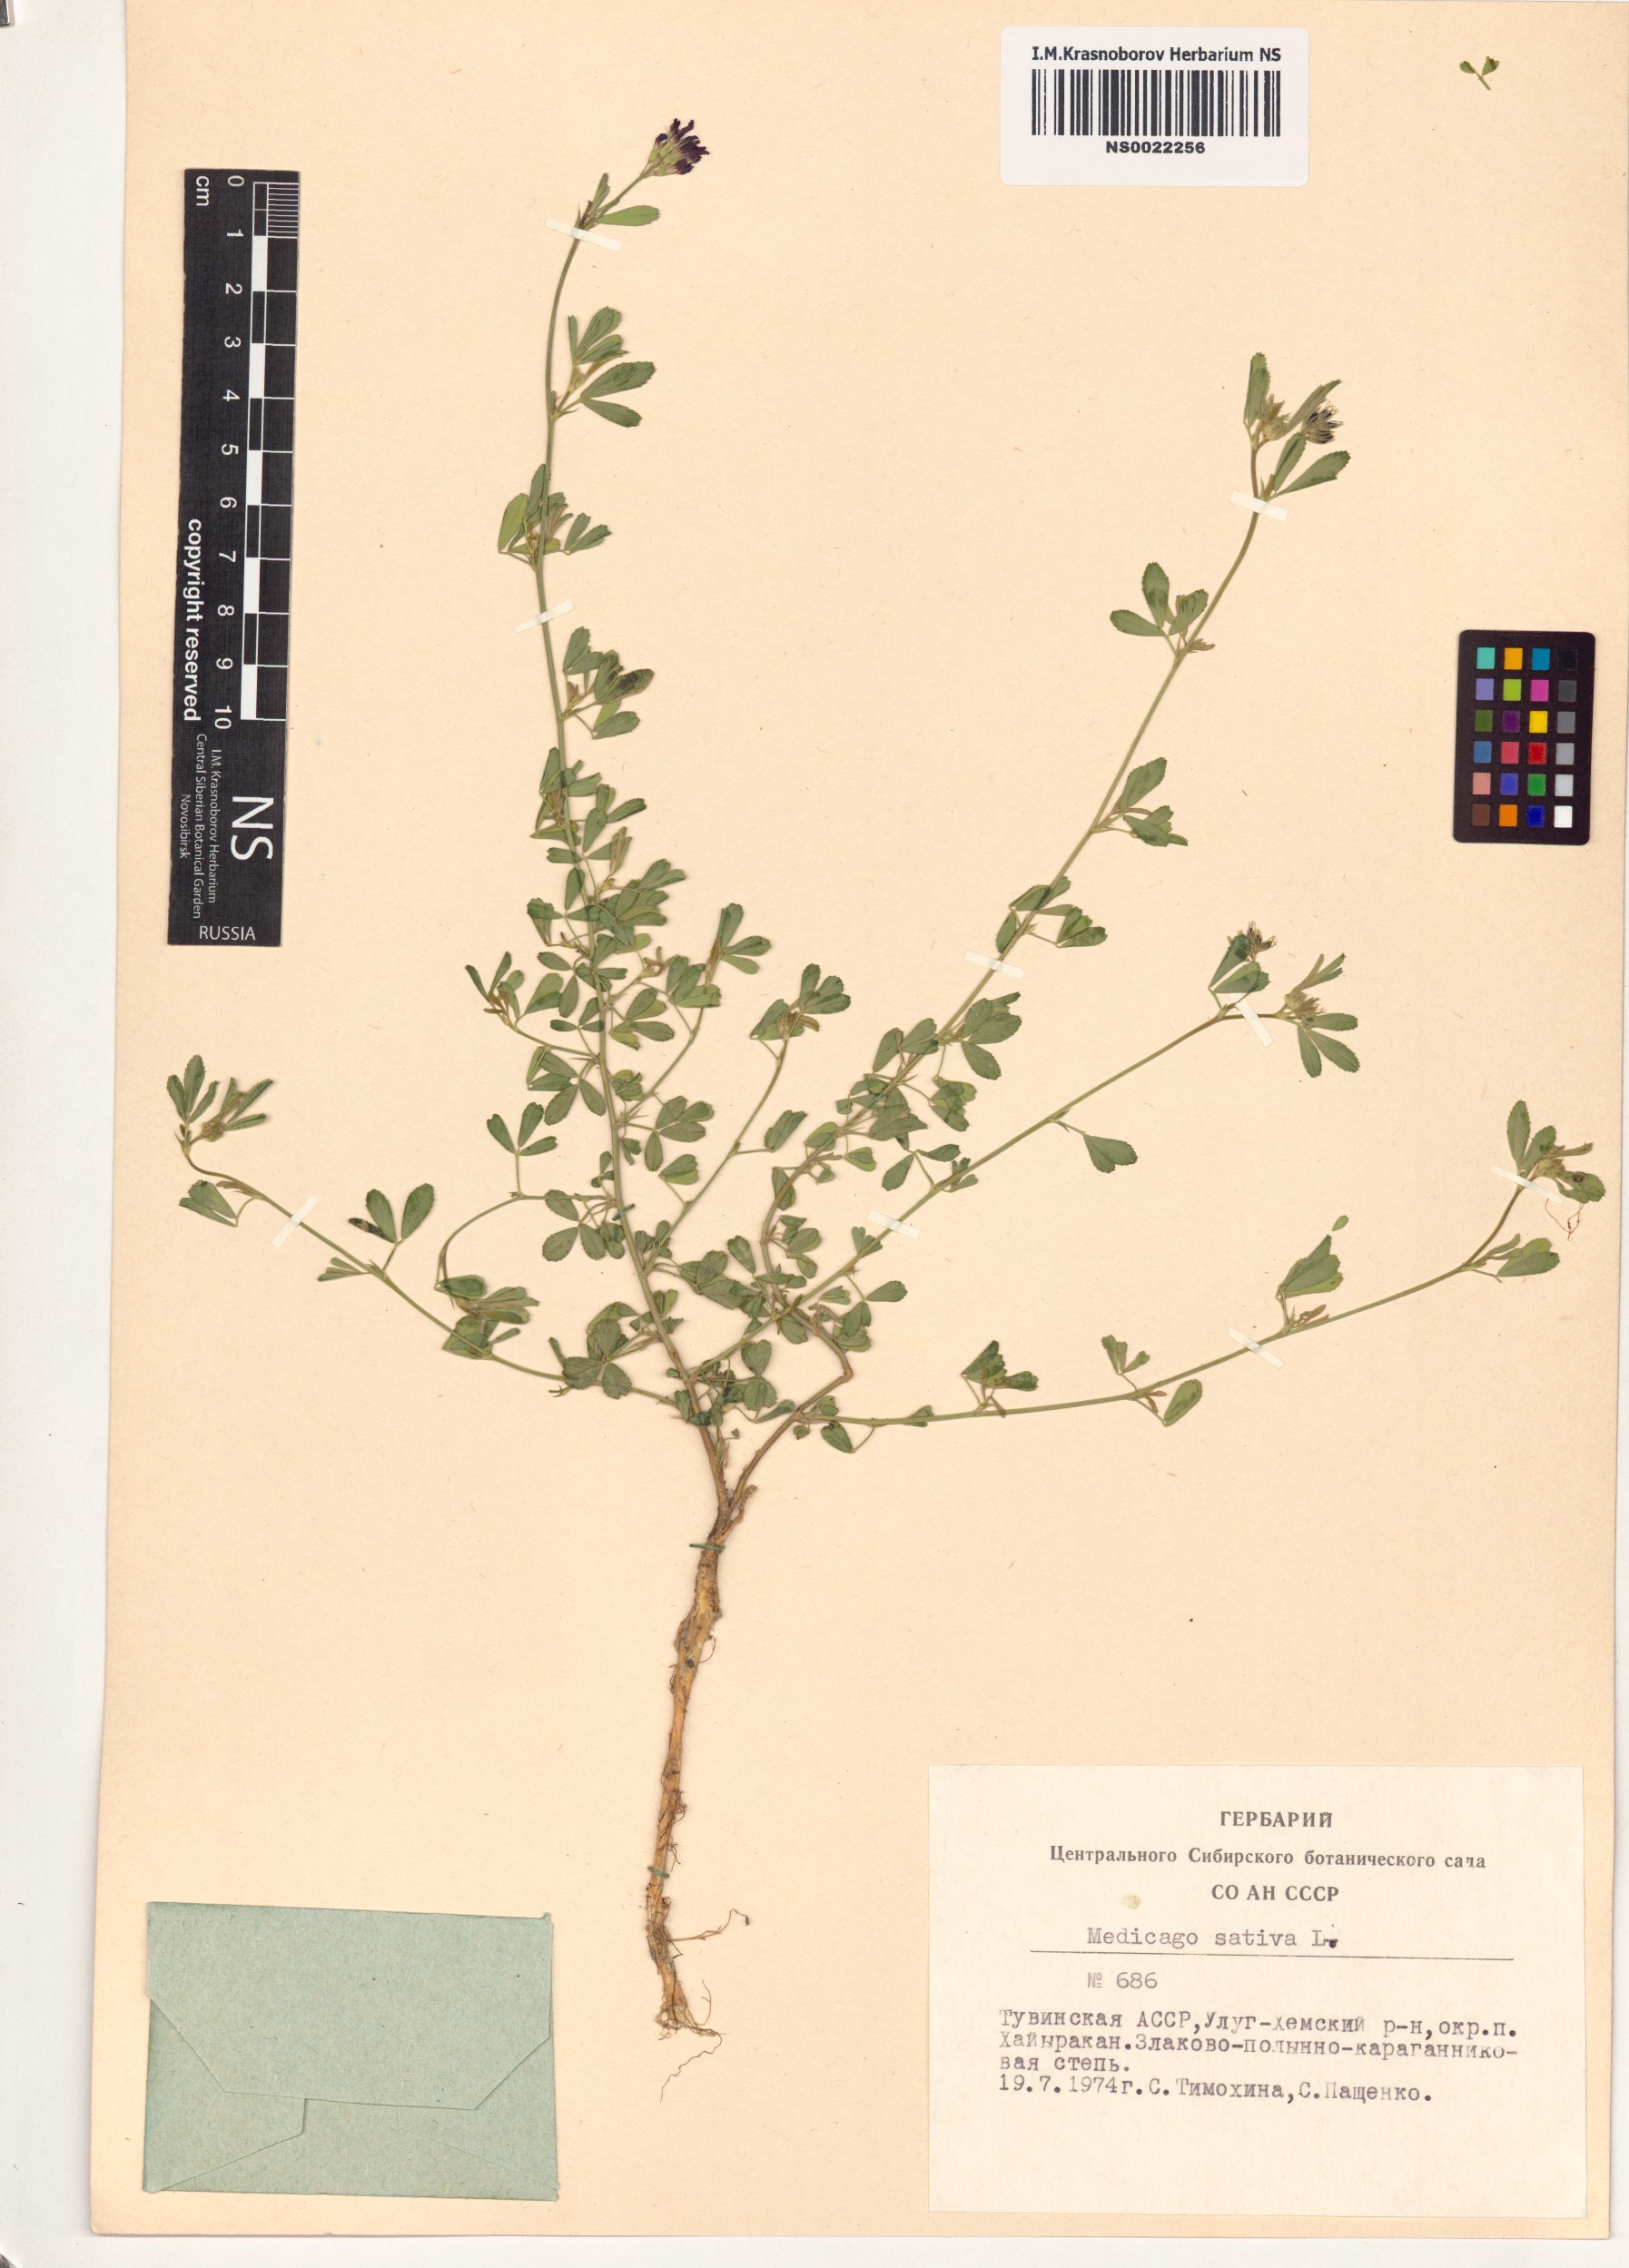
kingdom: Plantae
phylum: Tracheophyta
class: Magnoliopsida
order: Fabales
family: Fabaceae
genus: Medicago
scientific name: Medicago sativa
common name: Alfalfa
